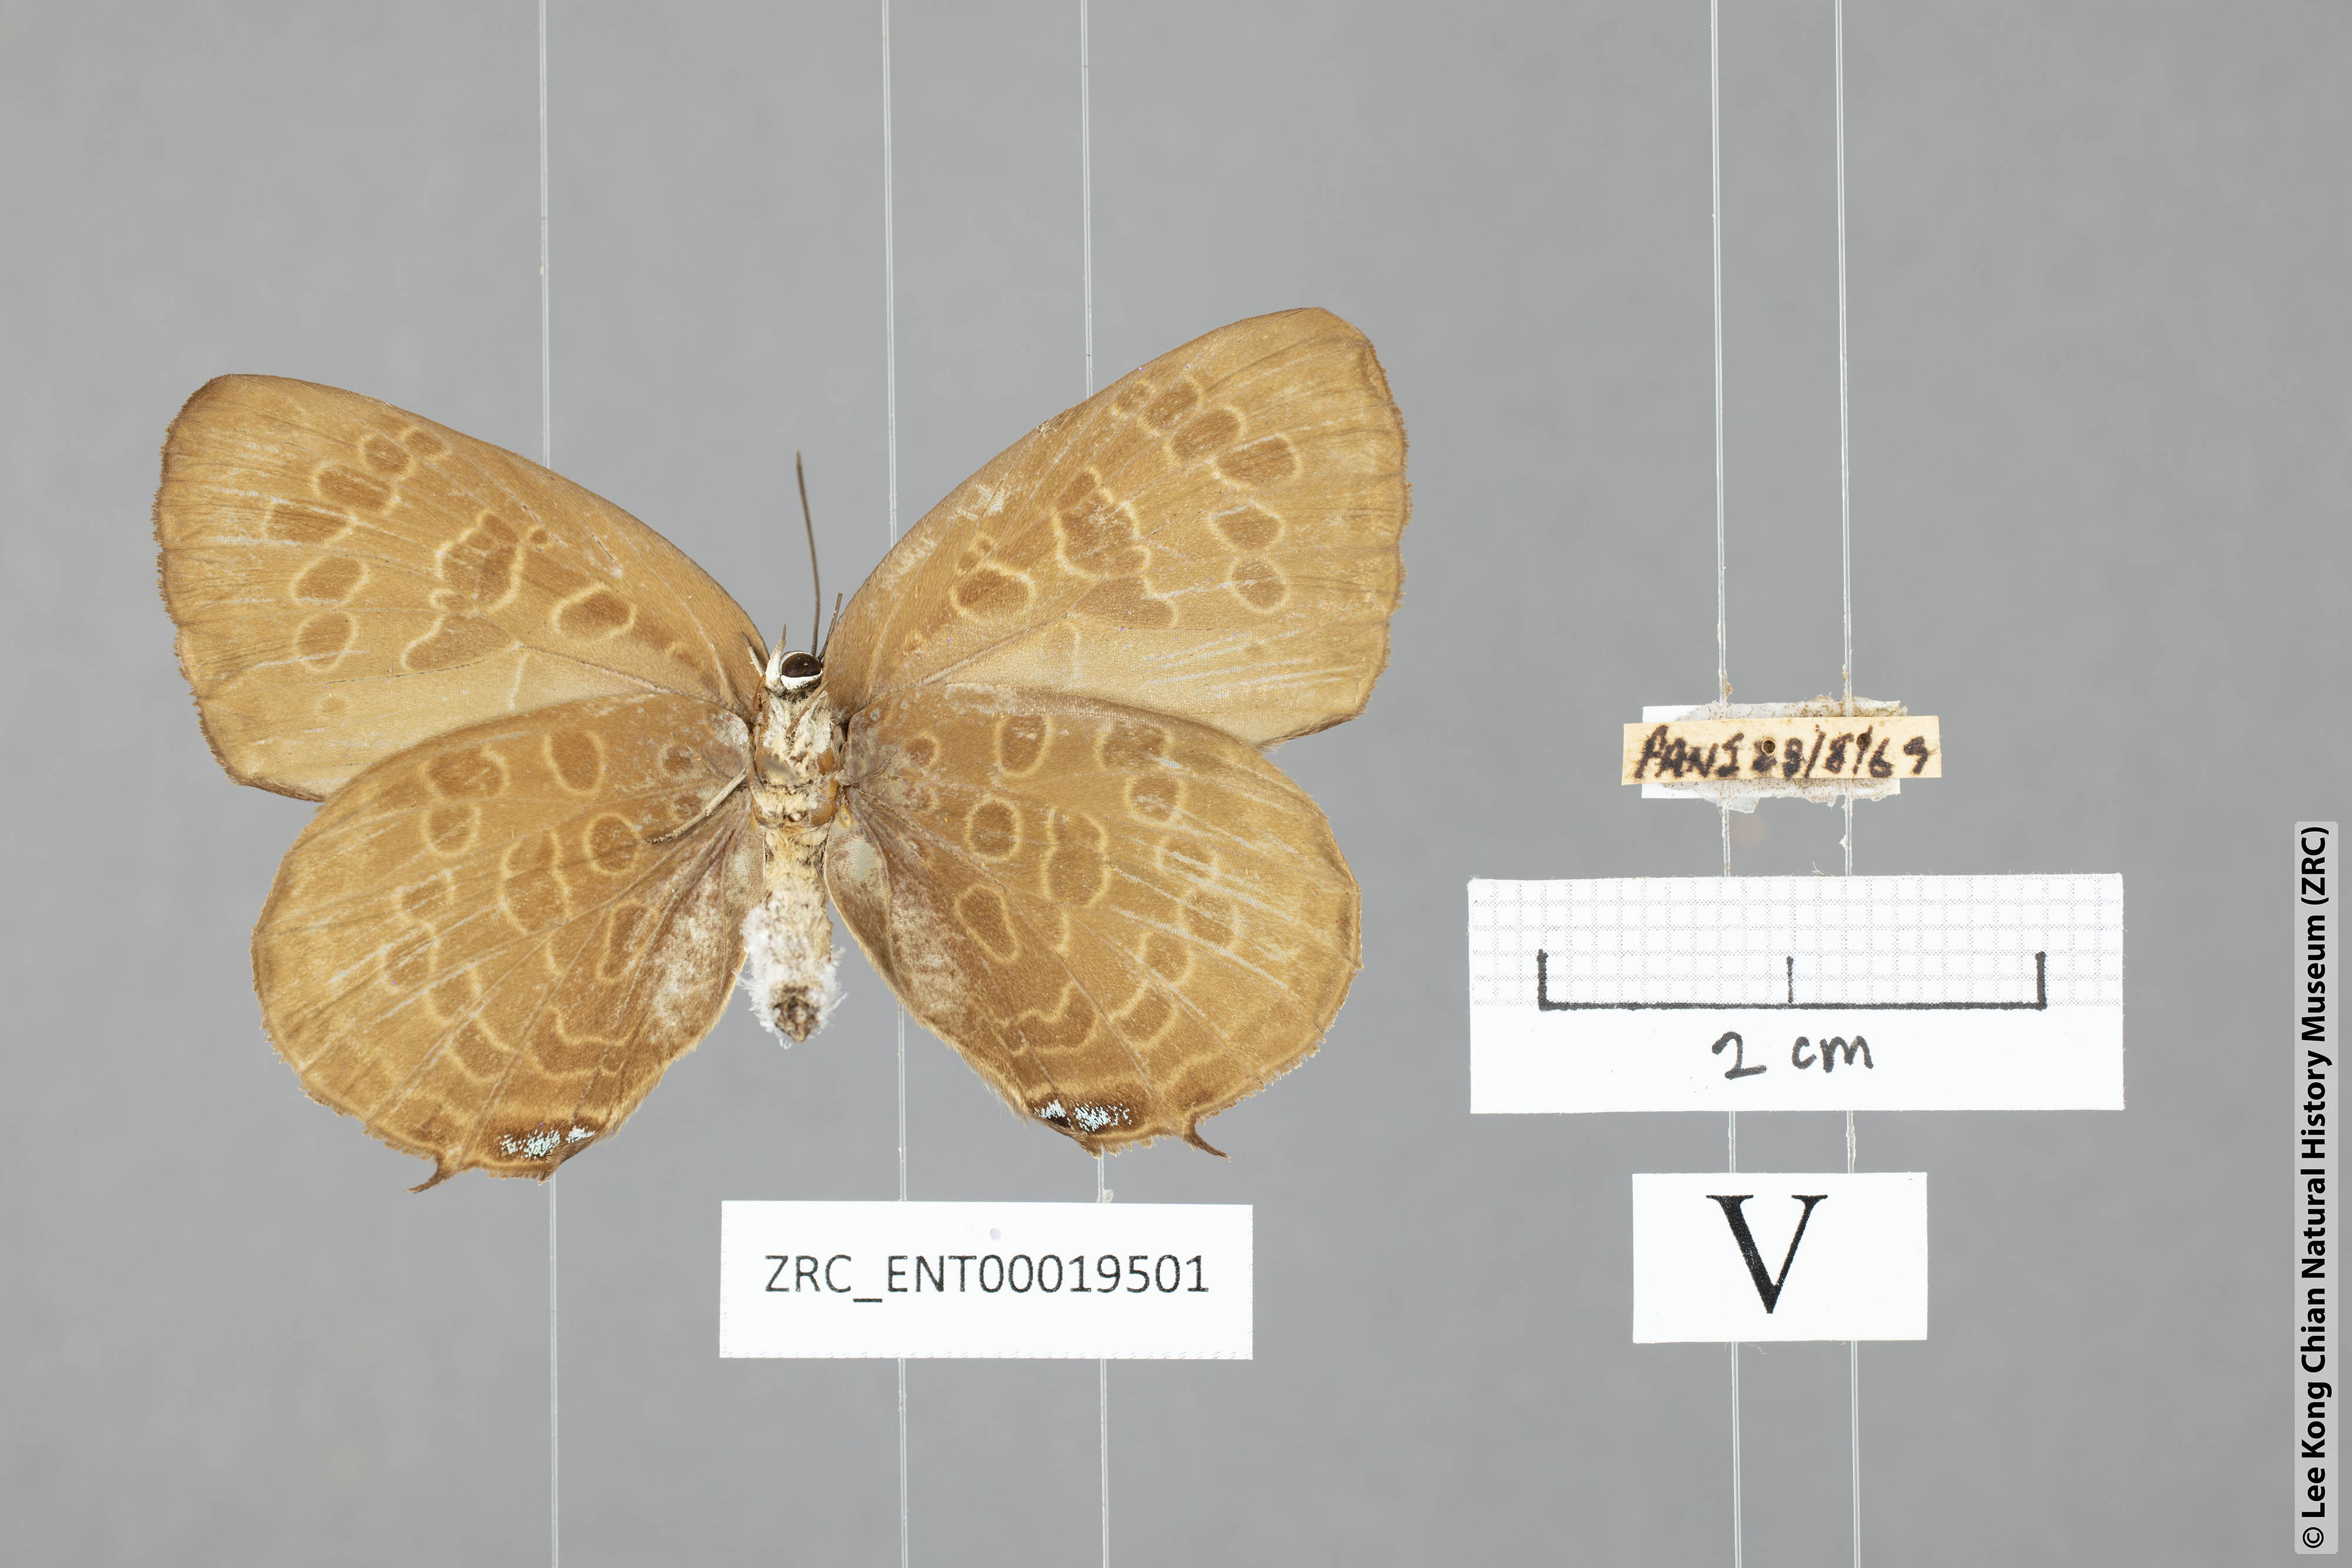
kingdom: Animalia
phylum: Arthropoda
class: Insecta
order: Lepidoptera
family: Lycaenidae
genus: Arhopala
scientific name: Arhopala hellada
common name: Long-banded oakblue
